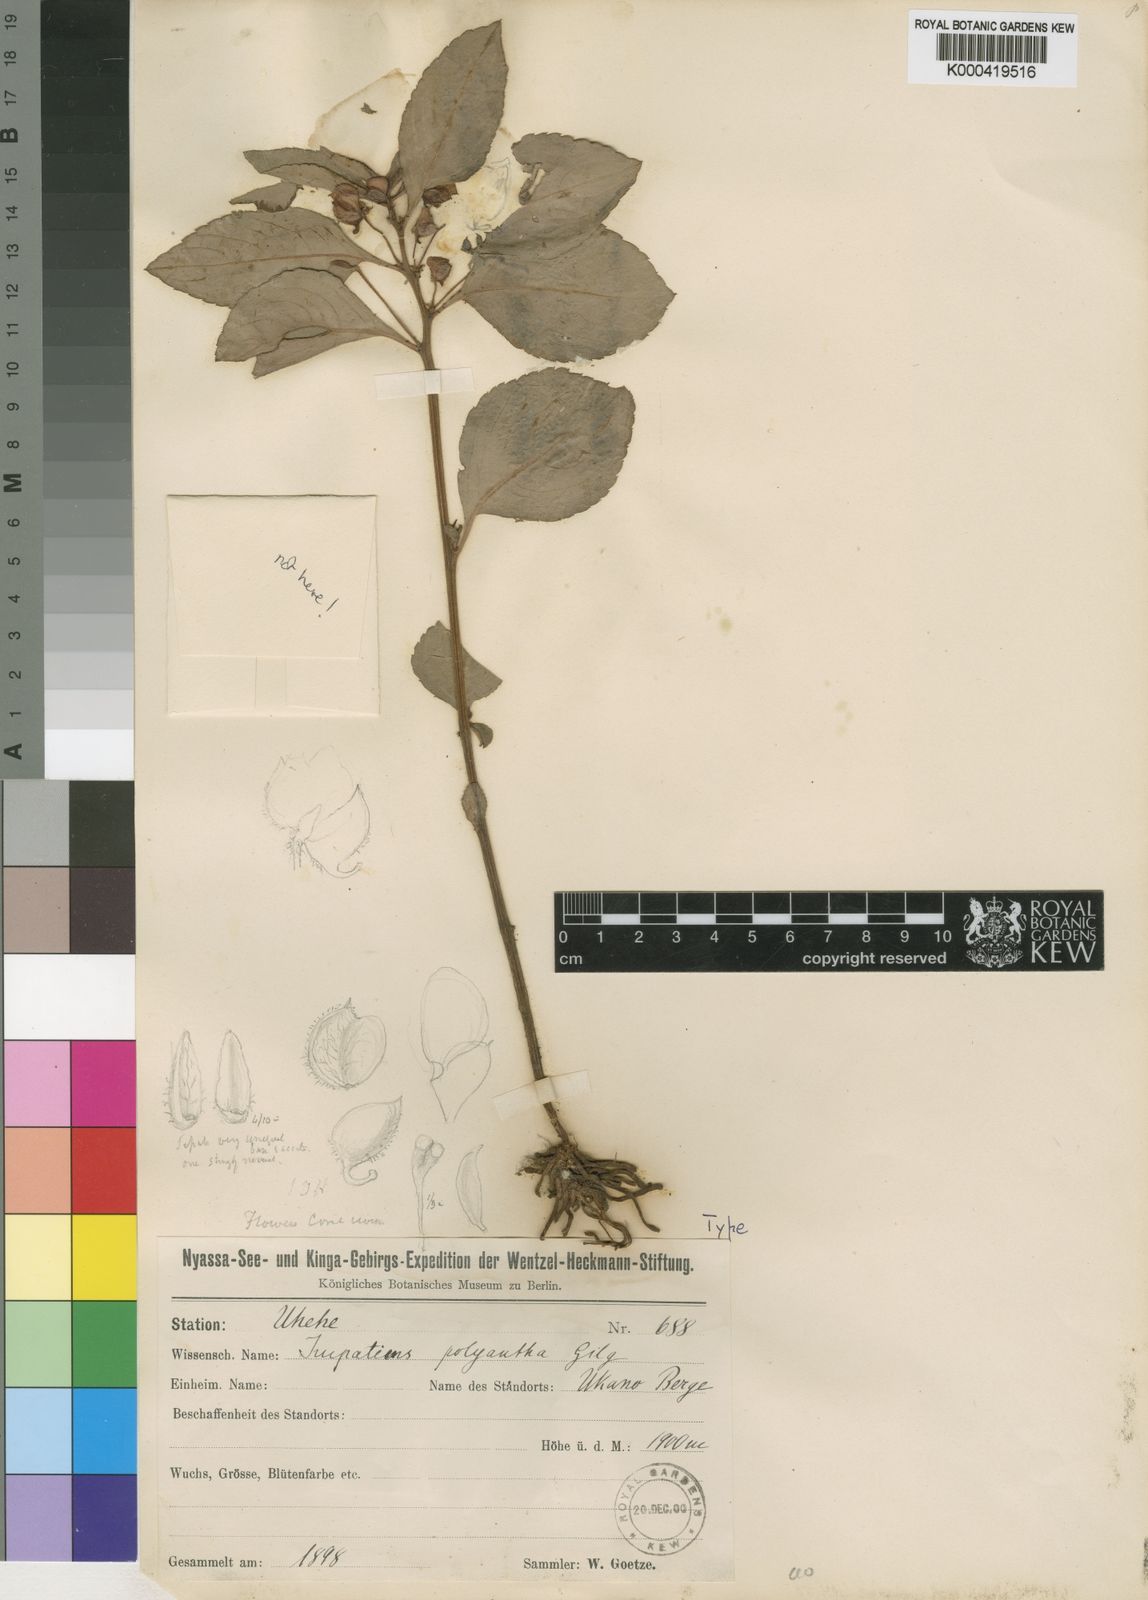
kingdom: Plantae
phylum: Tracheophyta
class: Magnoliopsida
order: Ericales
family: Balsaminaceae
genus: Impatiens
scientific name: Impatiens polyantha
